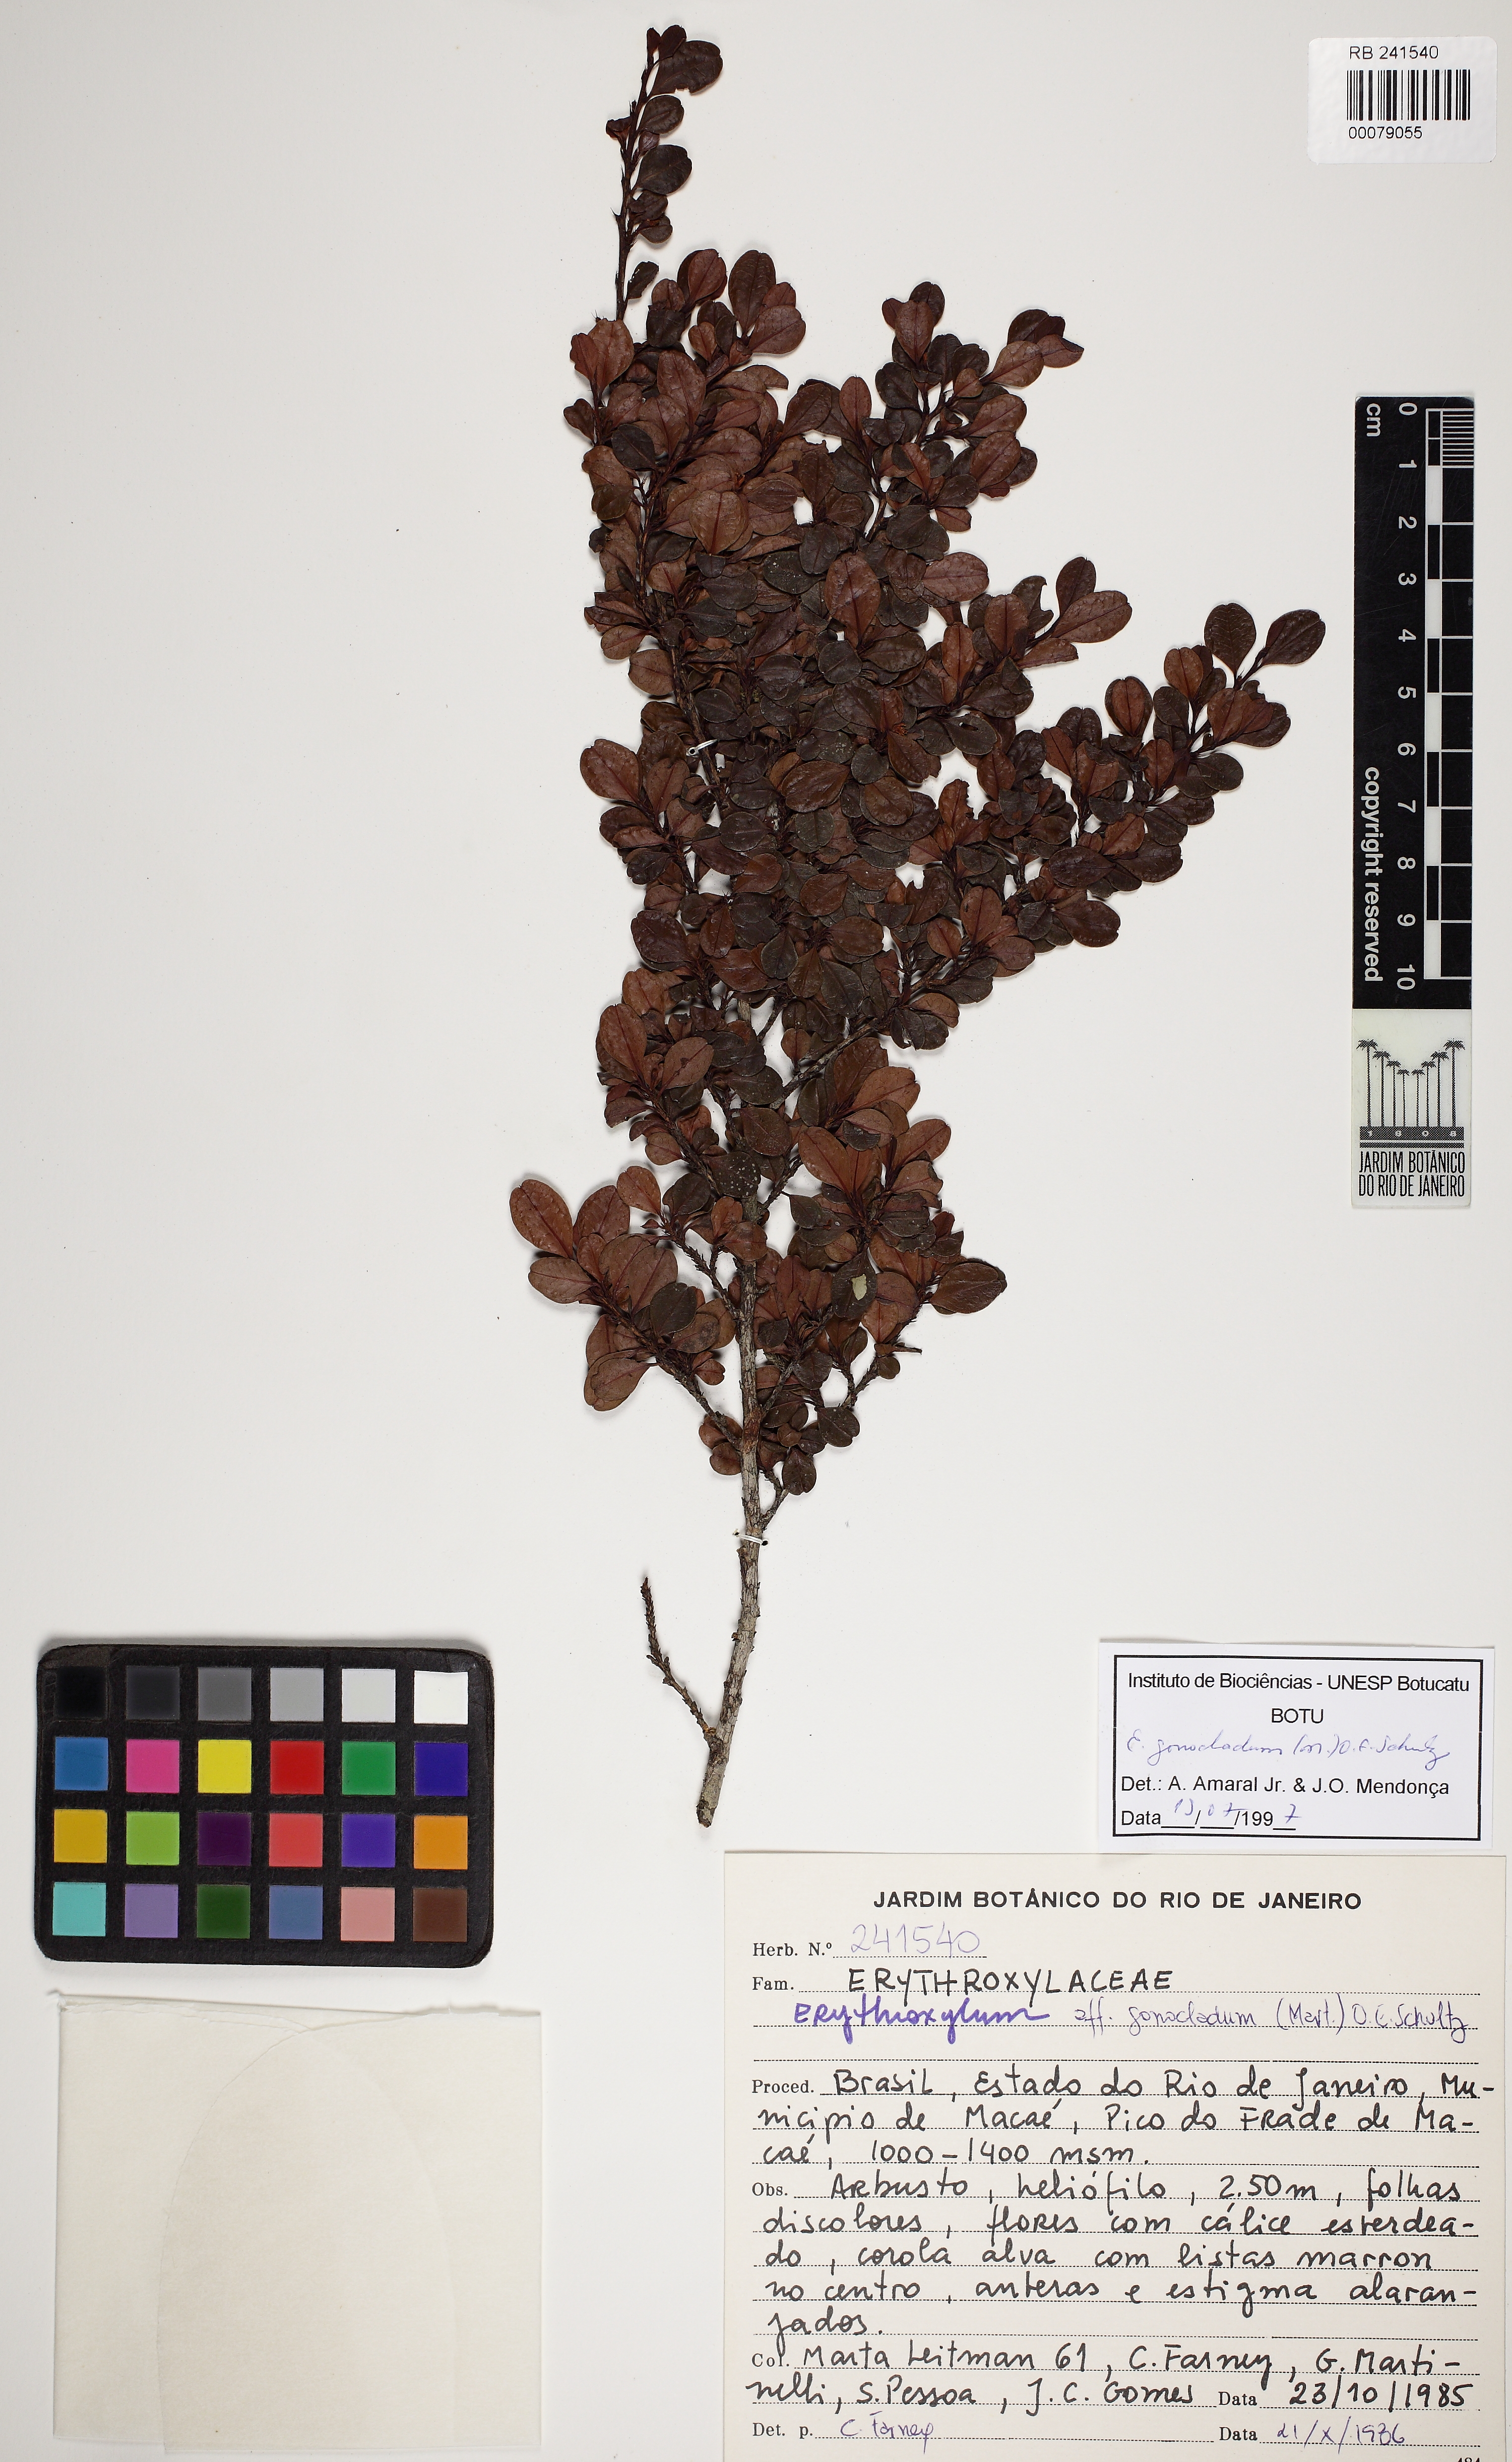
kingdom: Plantae
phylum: Tracheophyta
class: Magnoliopsida
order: Malpighiales
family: Erythroxylaceae
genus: Erythroxylum
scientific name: Erythroxylum gonoclados
